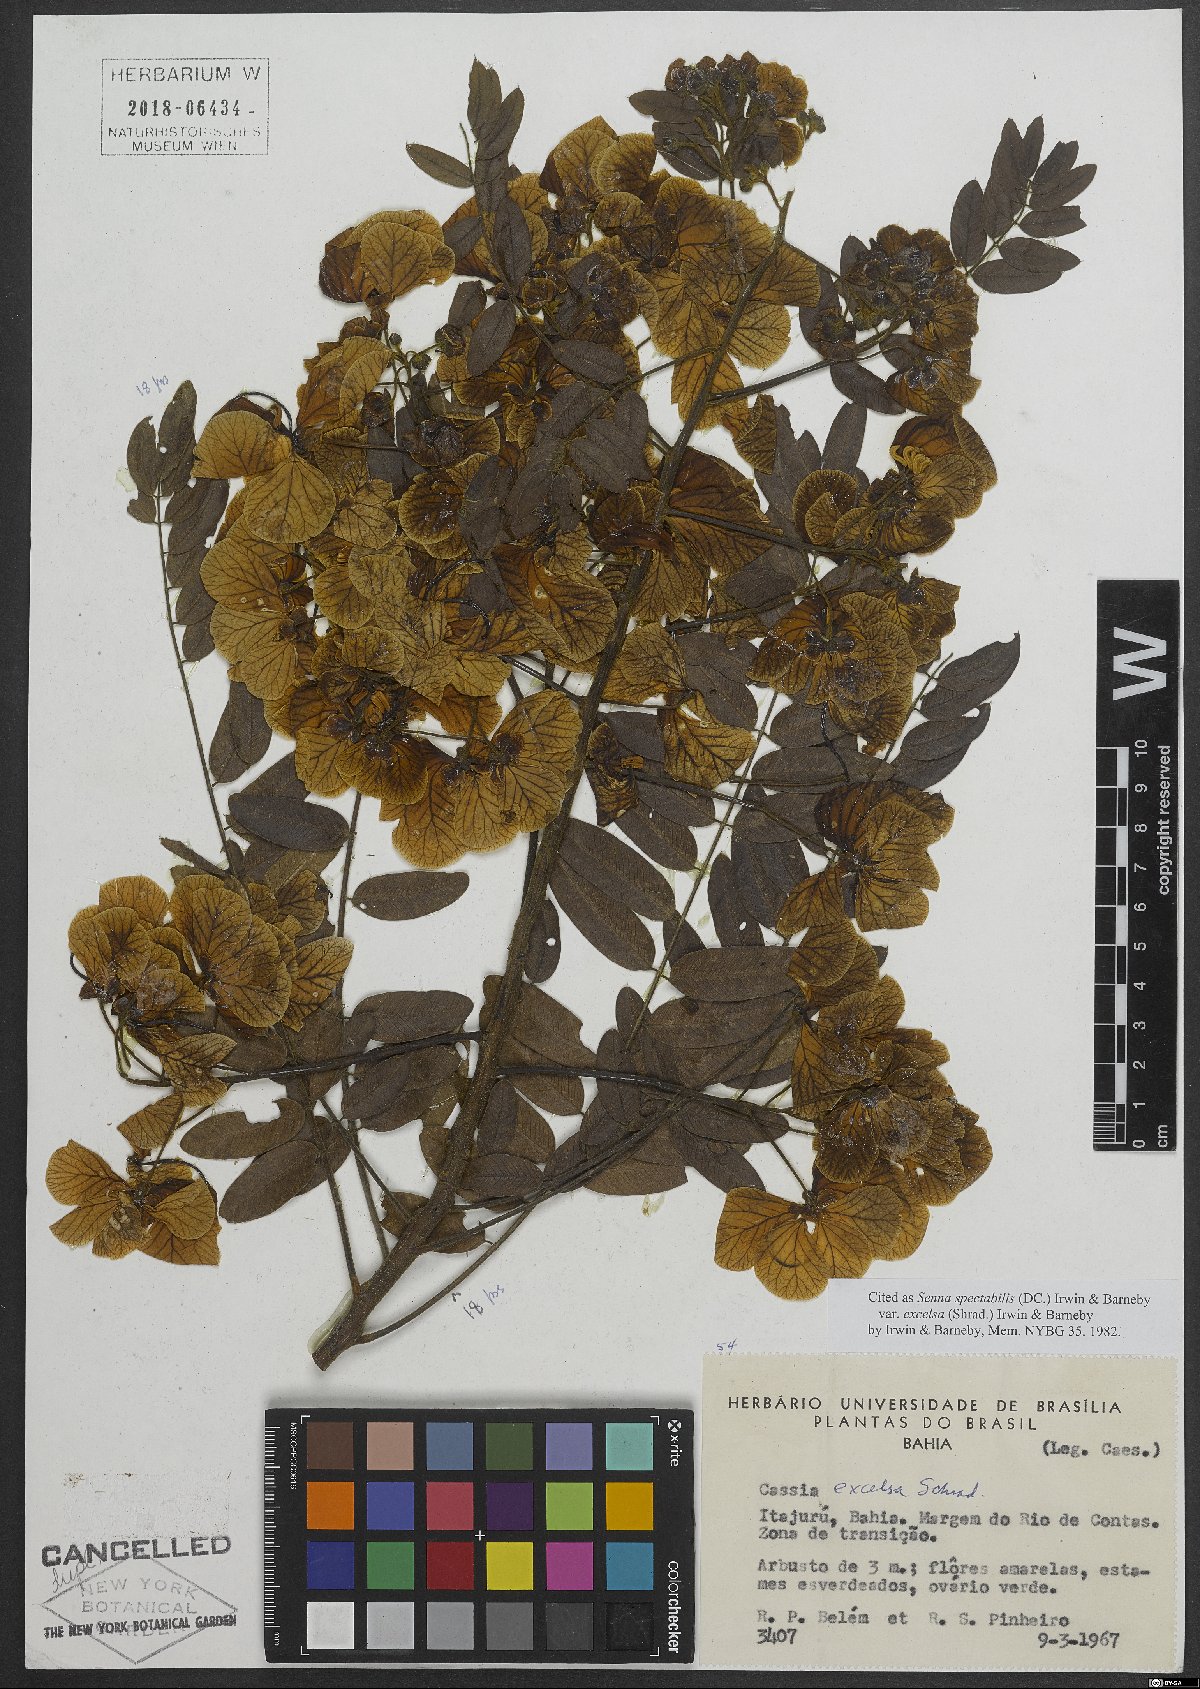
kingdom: Plantae
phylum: Tracheophyta
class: Magnoliopsida
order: Fabales
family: Fabaceae
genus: Senna
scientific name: Senna spectabilis
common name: Casia amarilla
